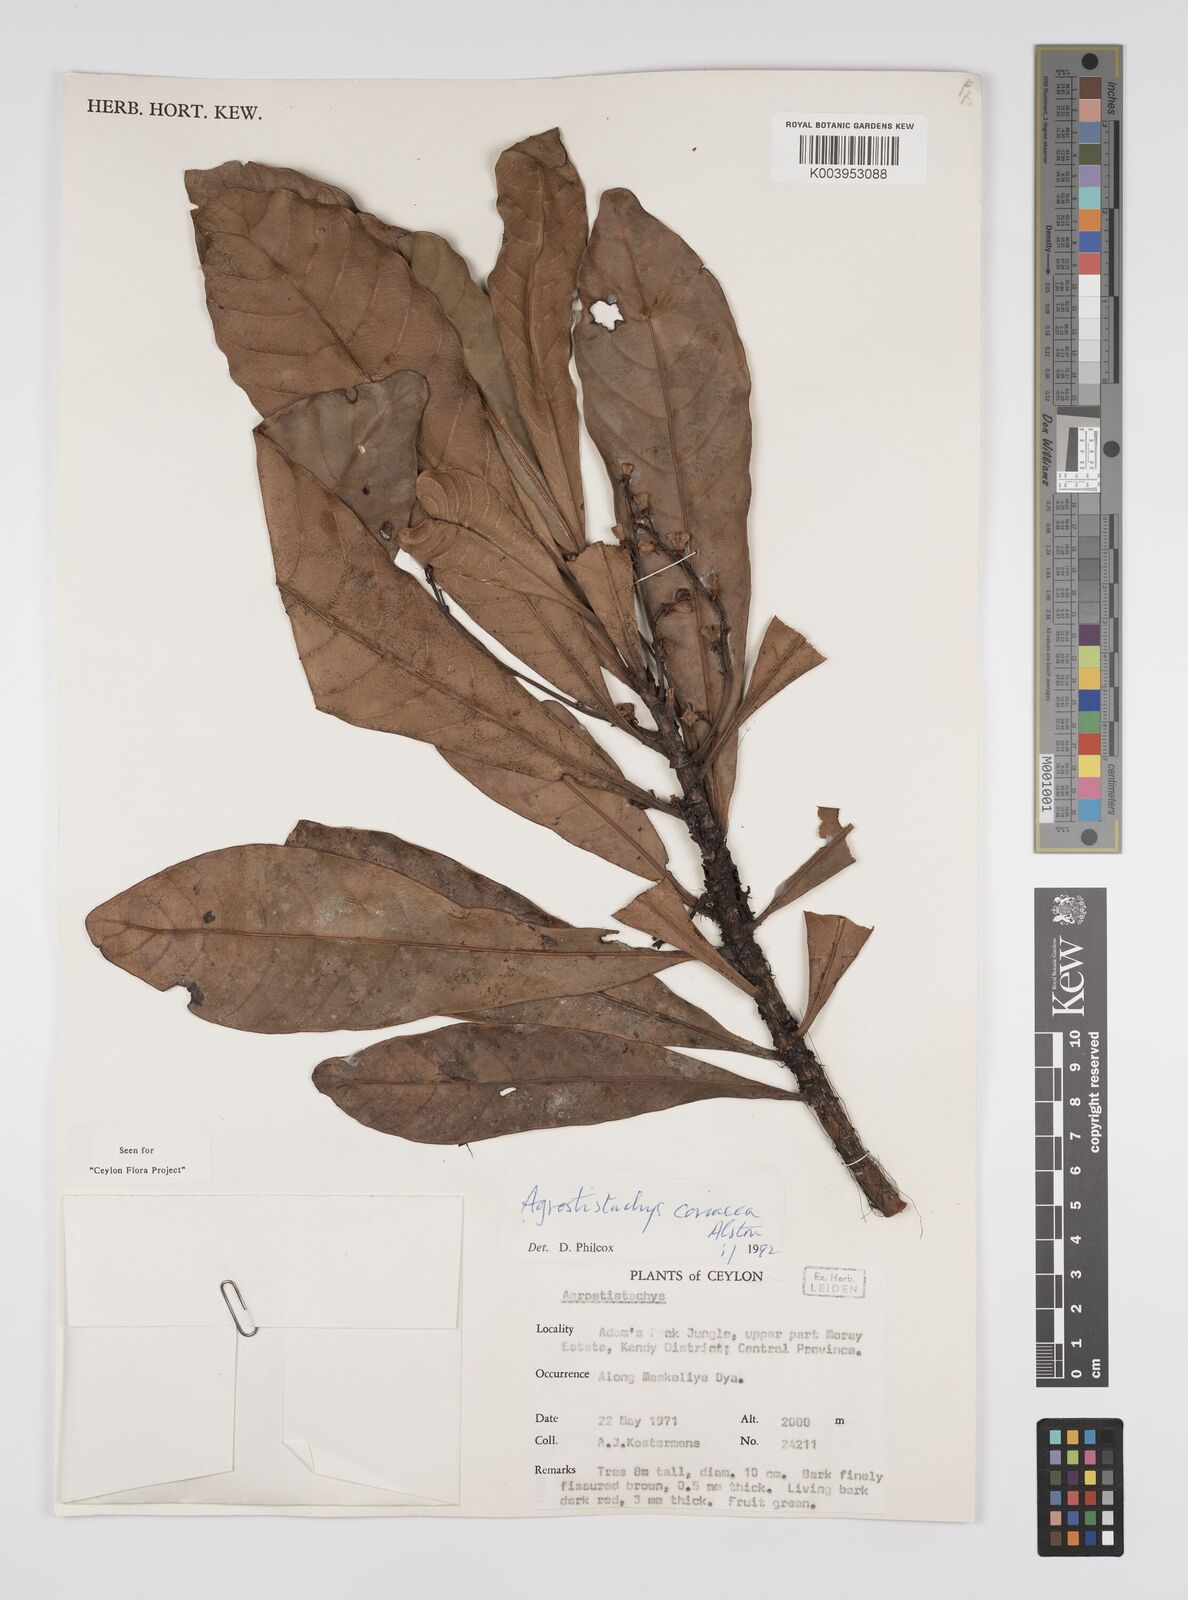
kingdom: Plantae
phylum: Tracheophyta
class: Magnoliopsida
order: Malpighiales
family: Euphorbiaceae
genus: Agrostistachys
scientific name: Agrostistachys borneensis
